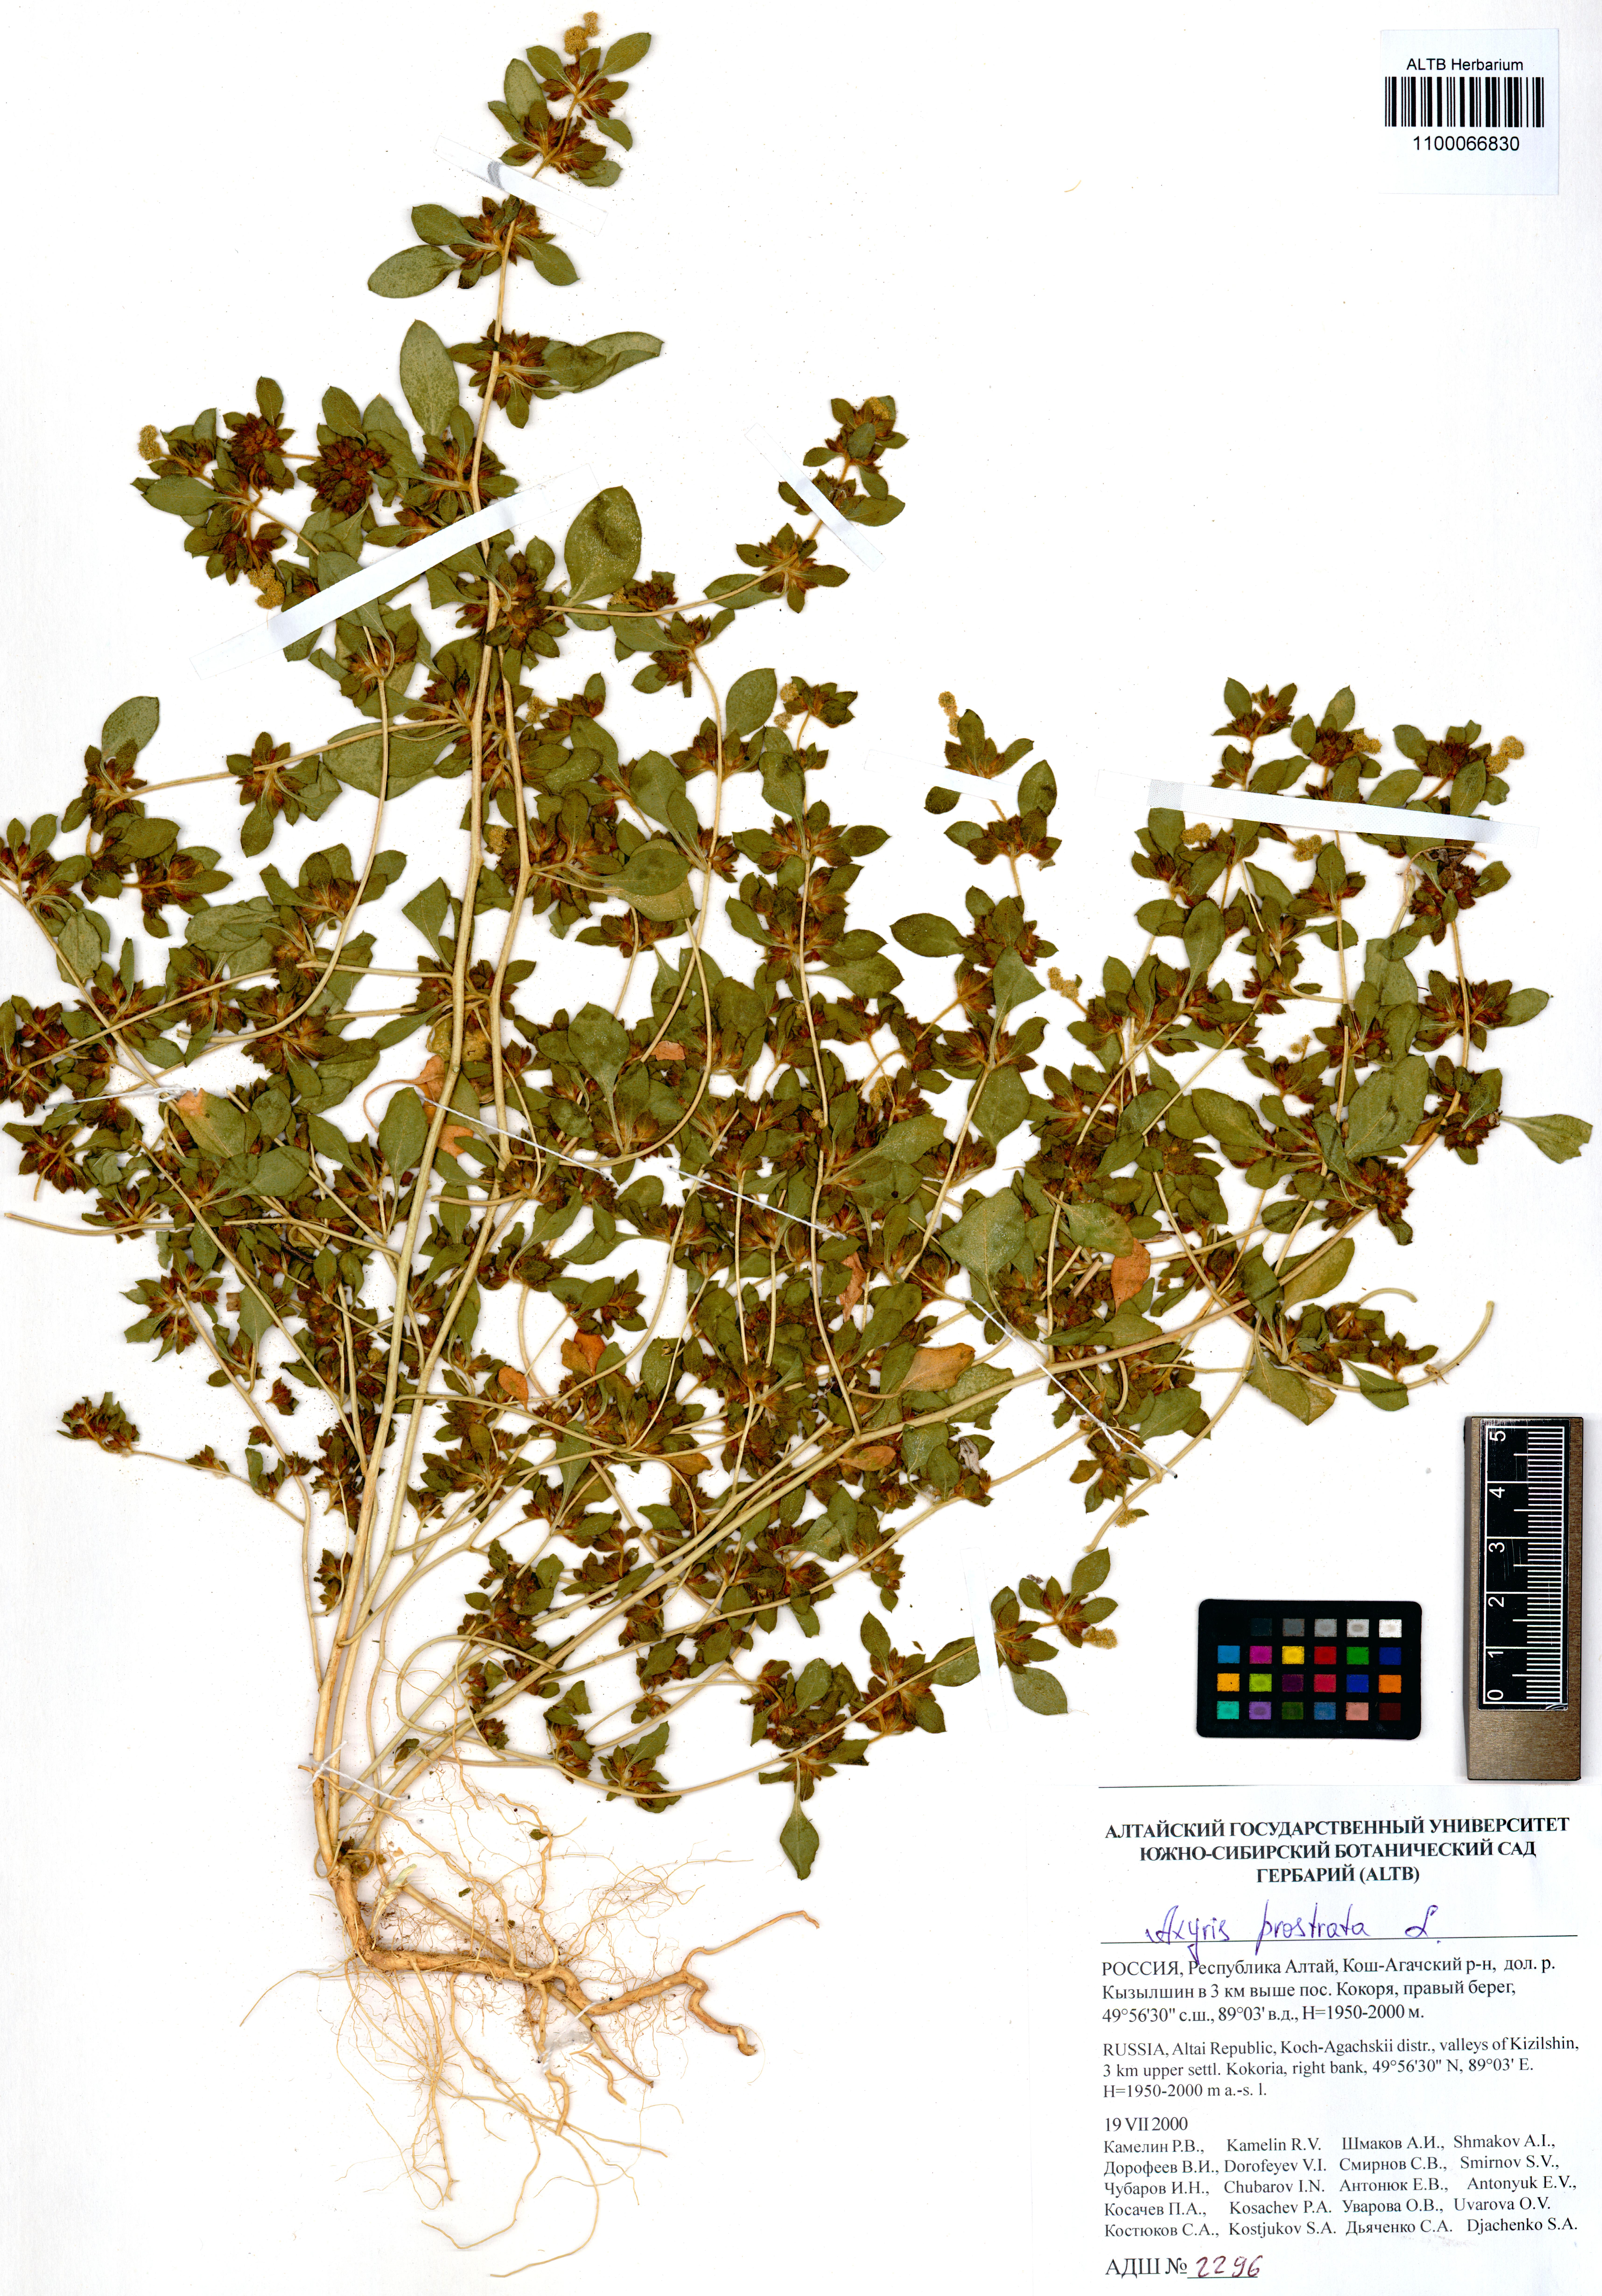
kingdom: Plantae
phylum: Tracheophyta
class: Magnoliopsida
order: Caryophyllales
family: Amaranthaceae
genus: Axyris
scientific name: Axyris prostrata
